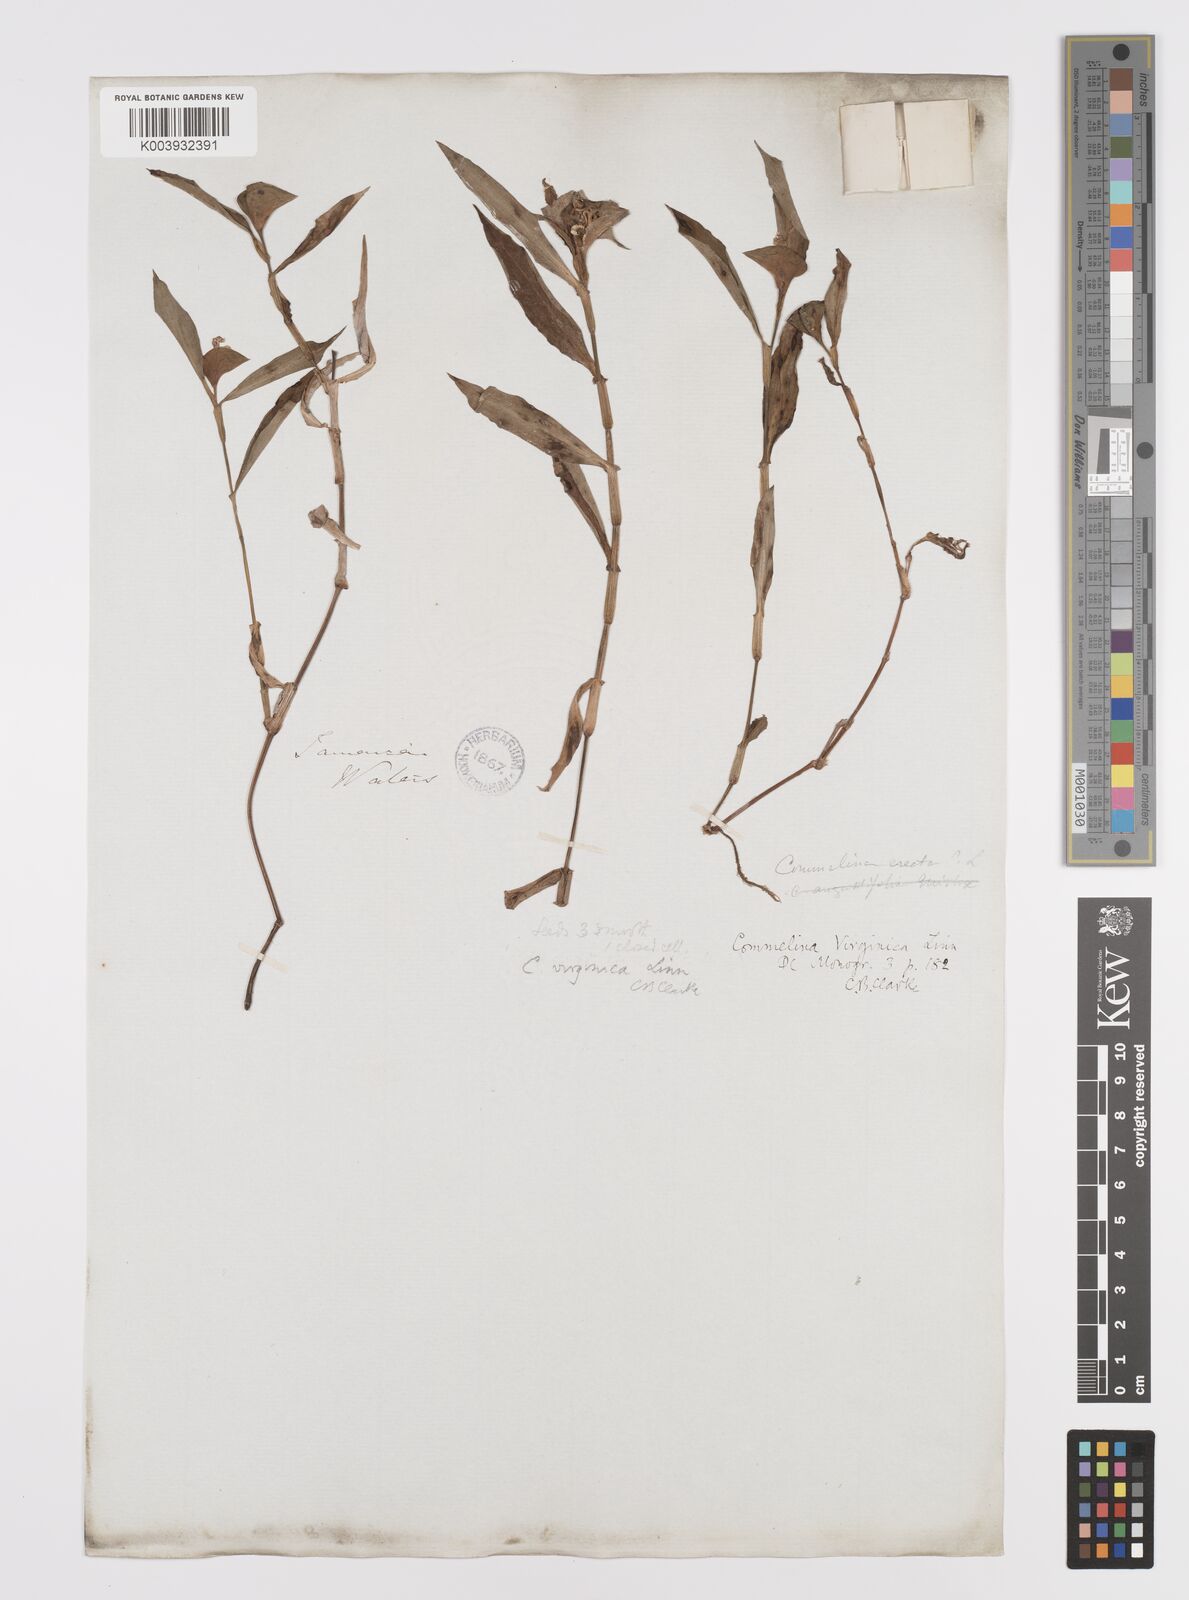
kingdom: Plantae
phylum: Tracheophyta
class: Liliopsida
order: Commelinales
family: Commelinaceae
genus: Commelina
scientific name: Commelina virginica
